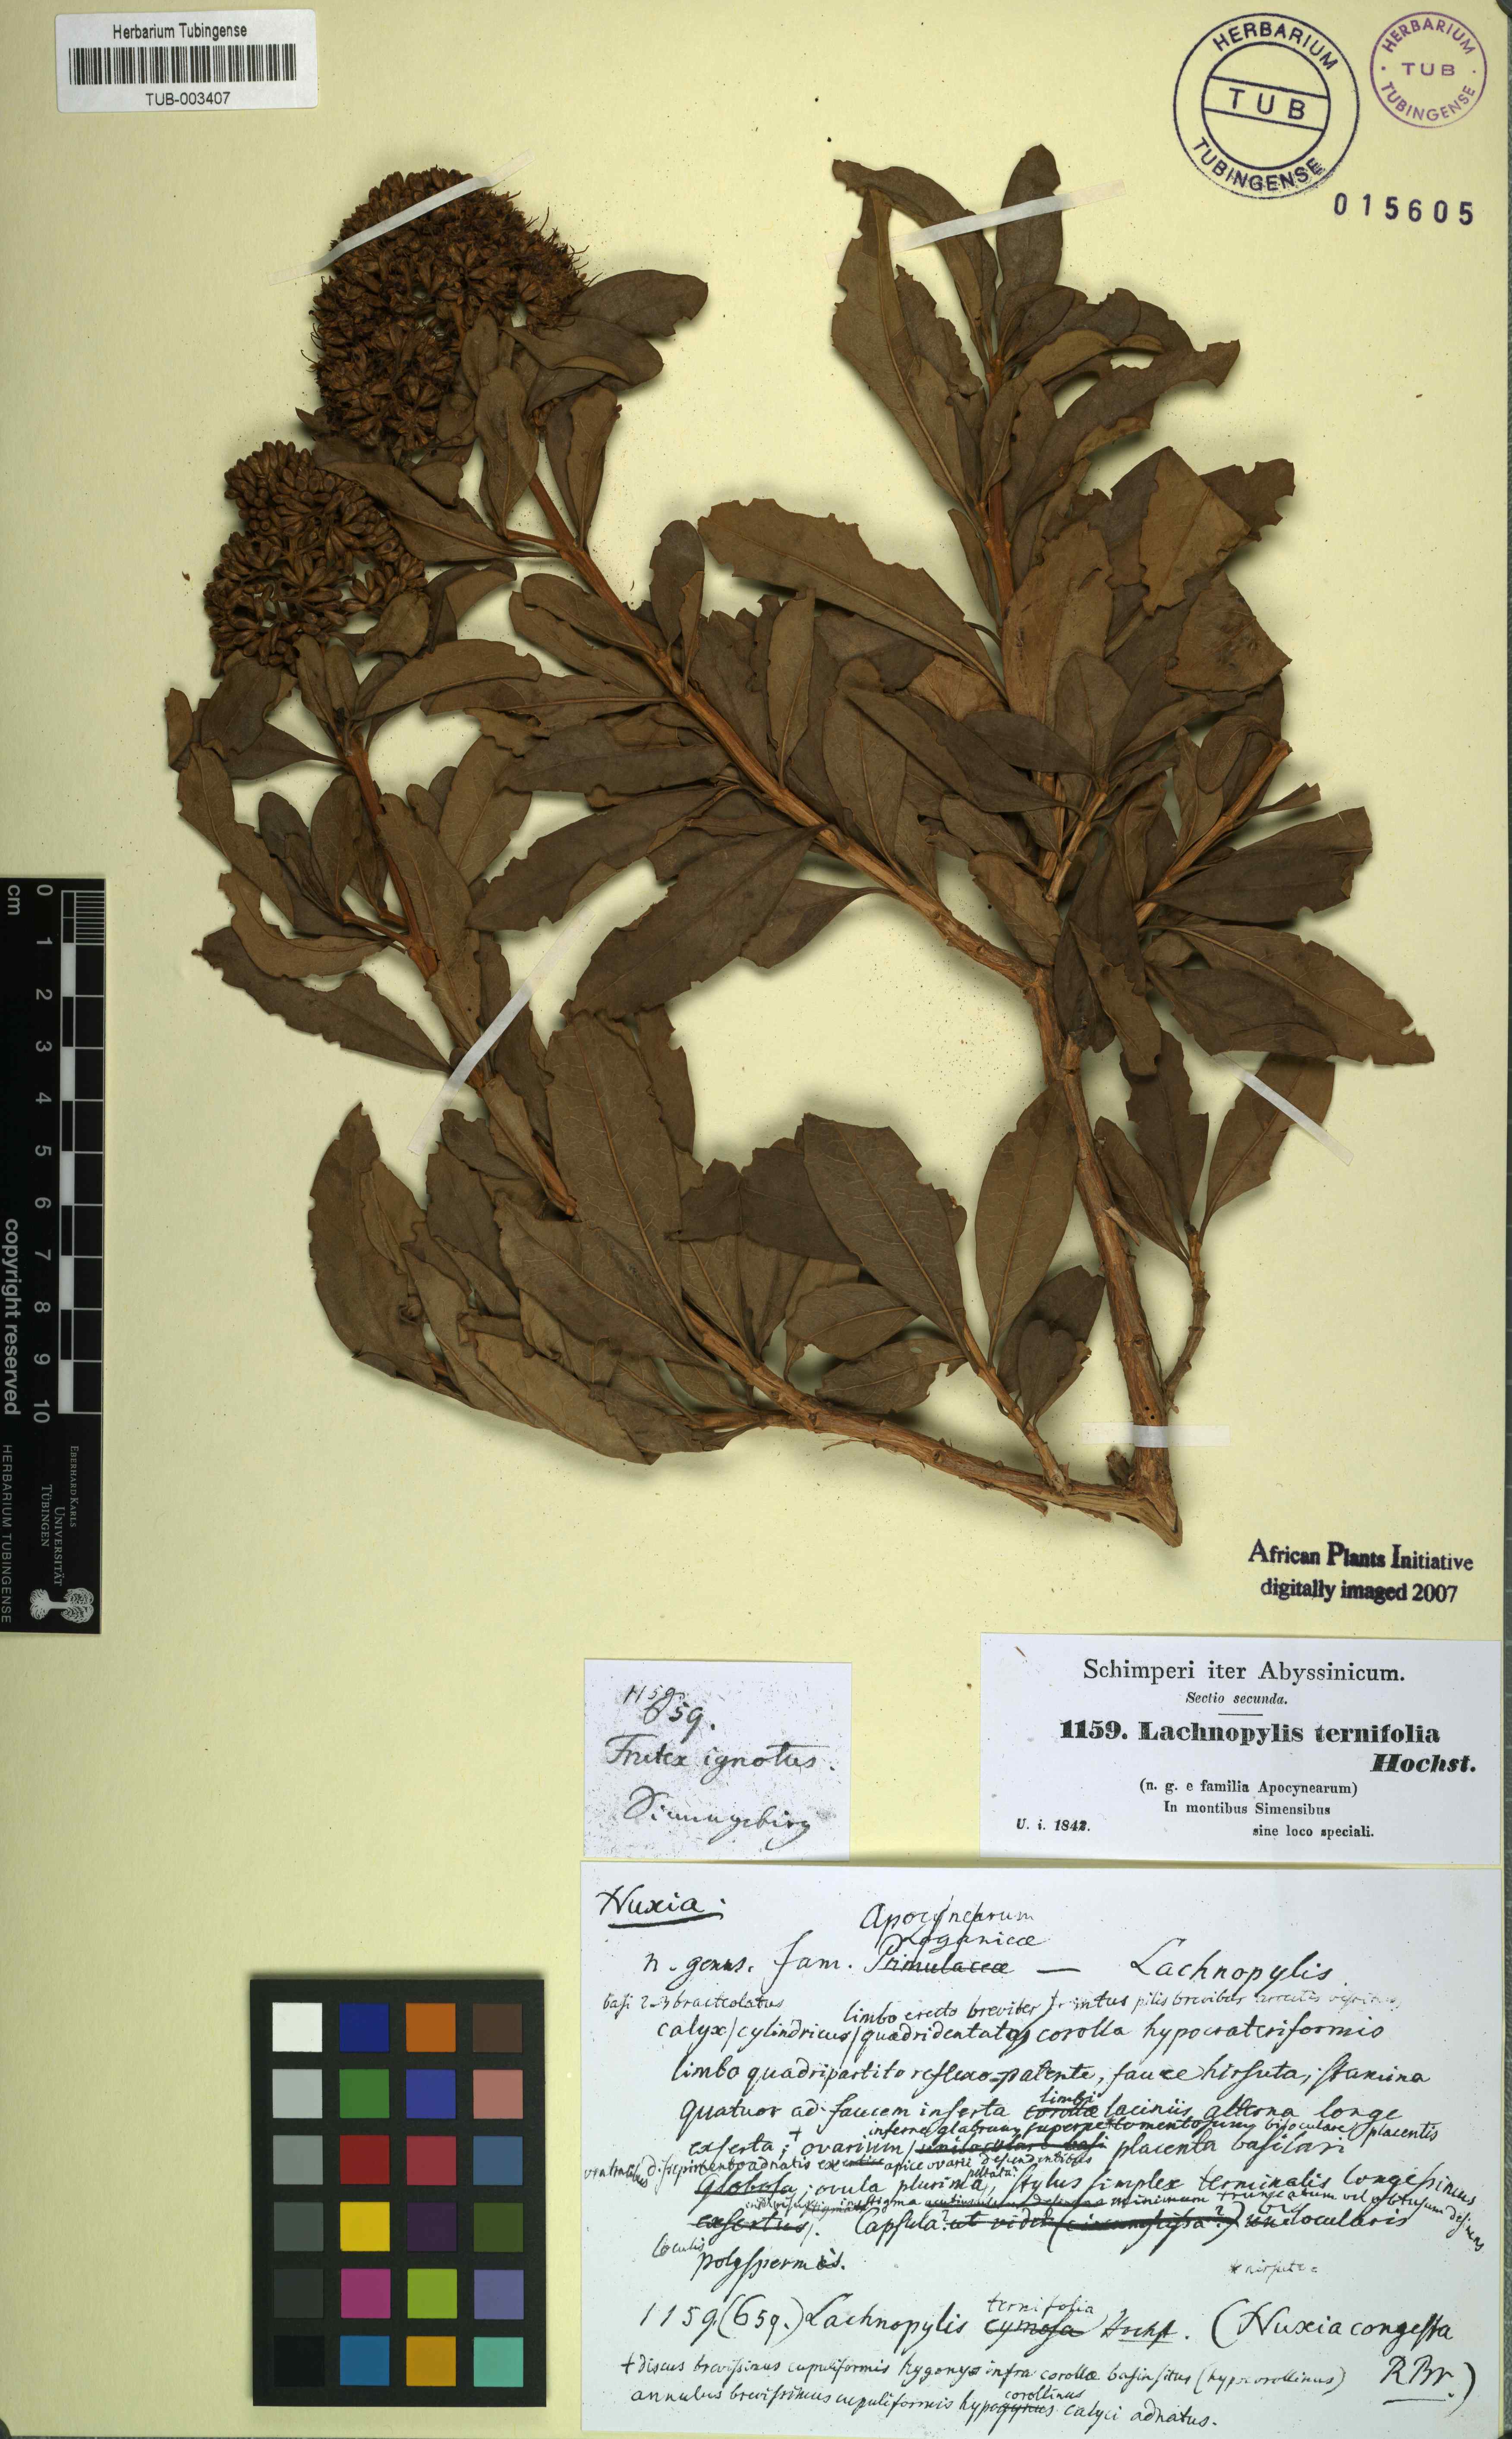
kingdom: Plantae
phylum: Tracheophyta
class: Magnoliopsida
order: Lamiales
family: Stilbaceae
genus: Nuxia
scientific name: Nuxia congesta
